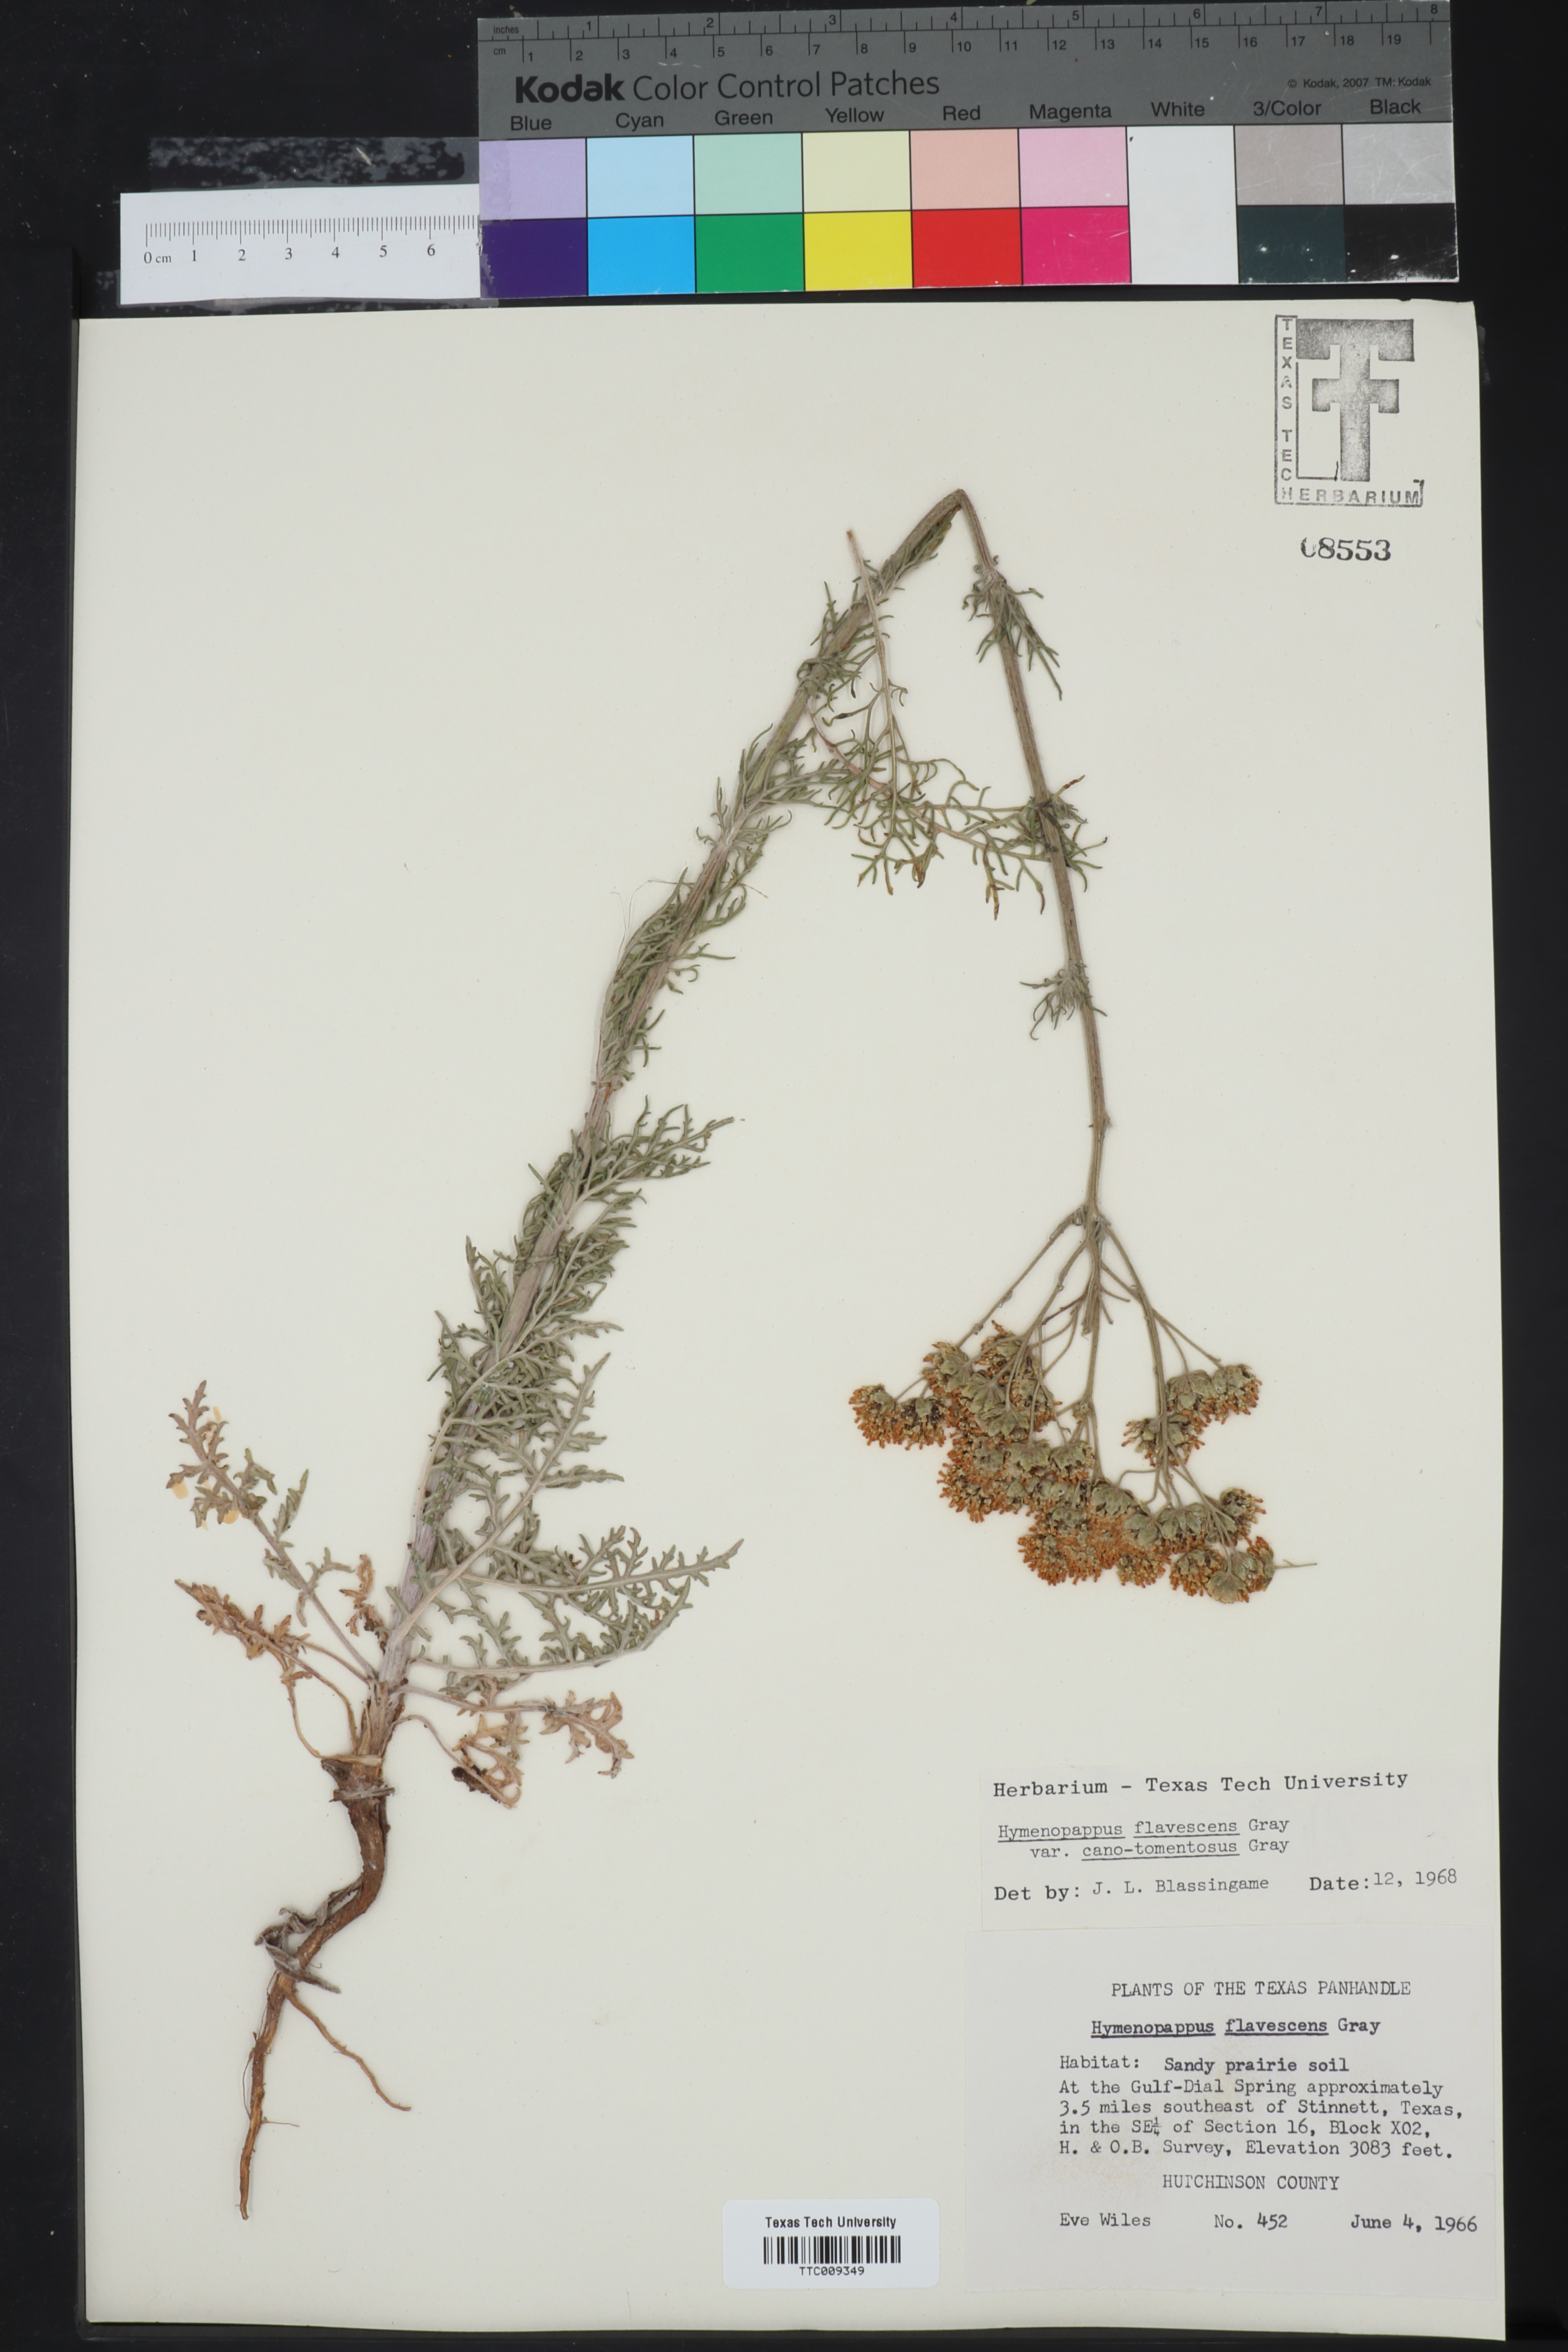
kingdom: Plantae
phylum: Tracheophyta
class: Magnoliopsida
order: Asterales
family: Asteraceae
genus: Hymenopappus
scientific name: Hymenopappus flavescens
